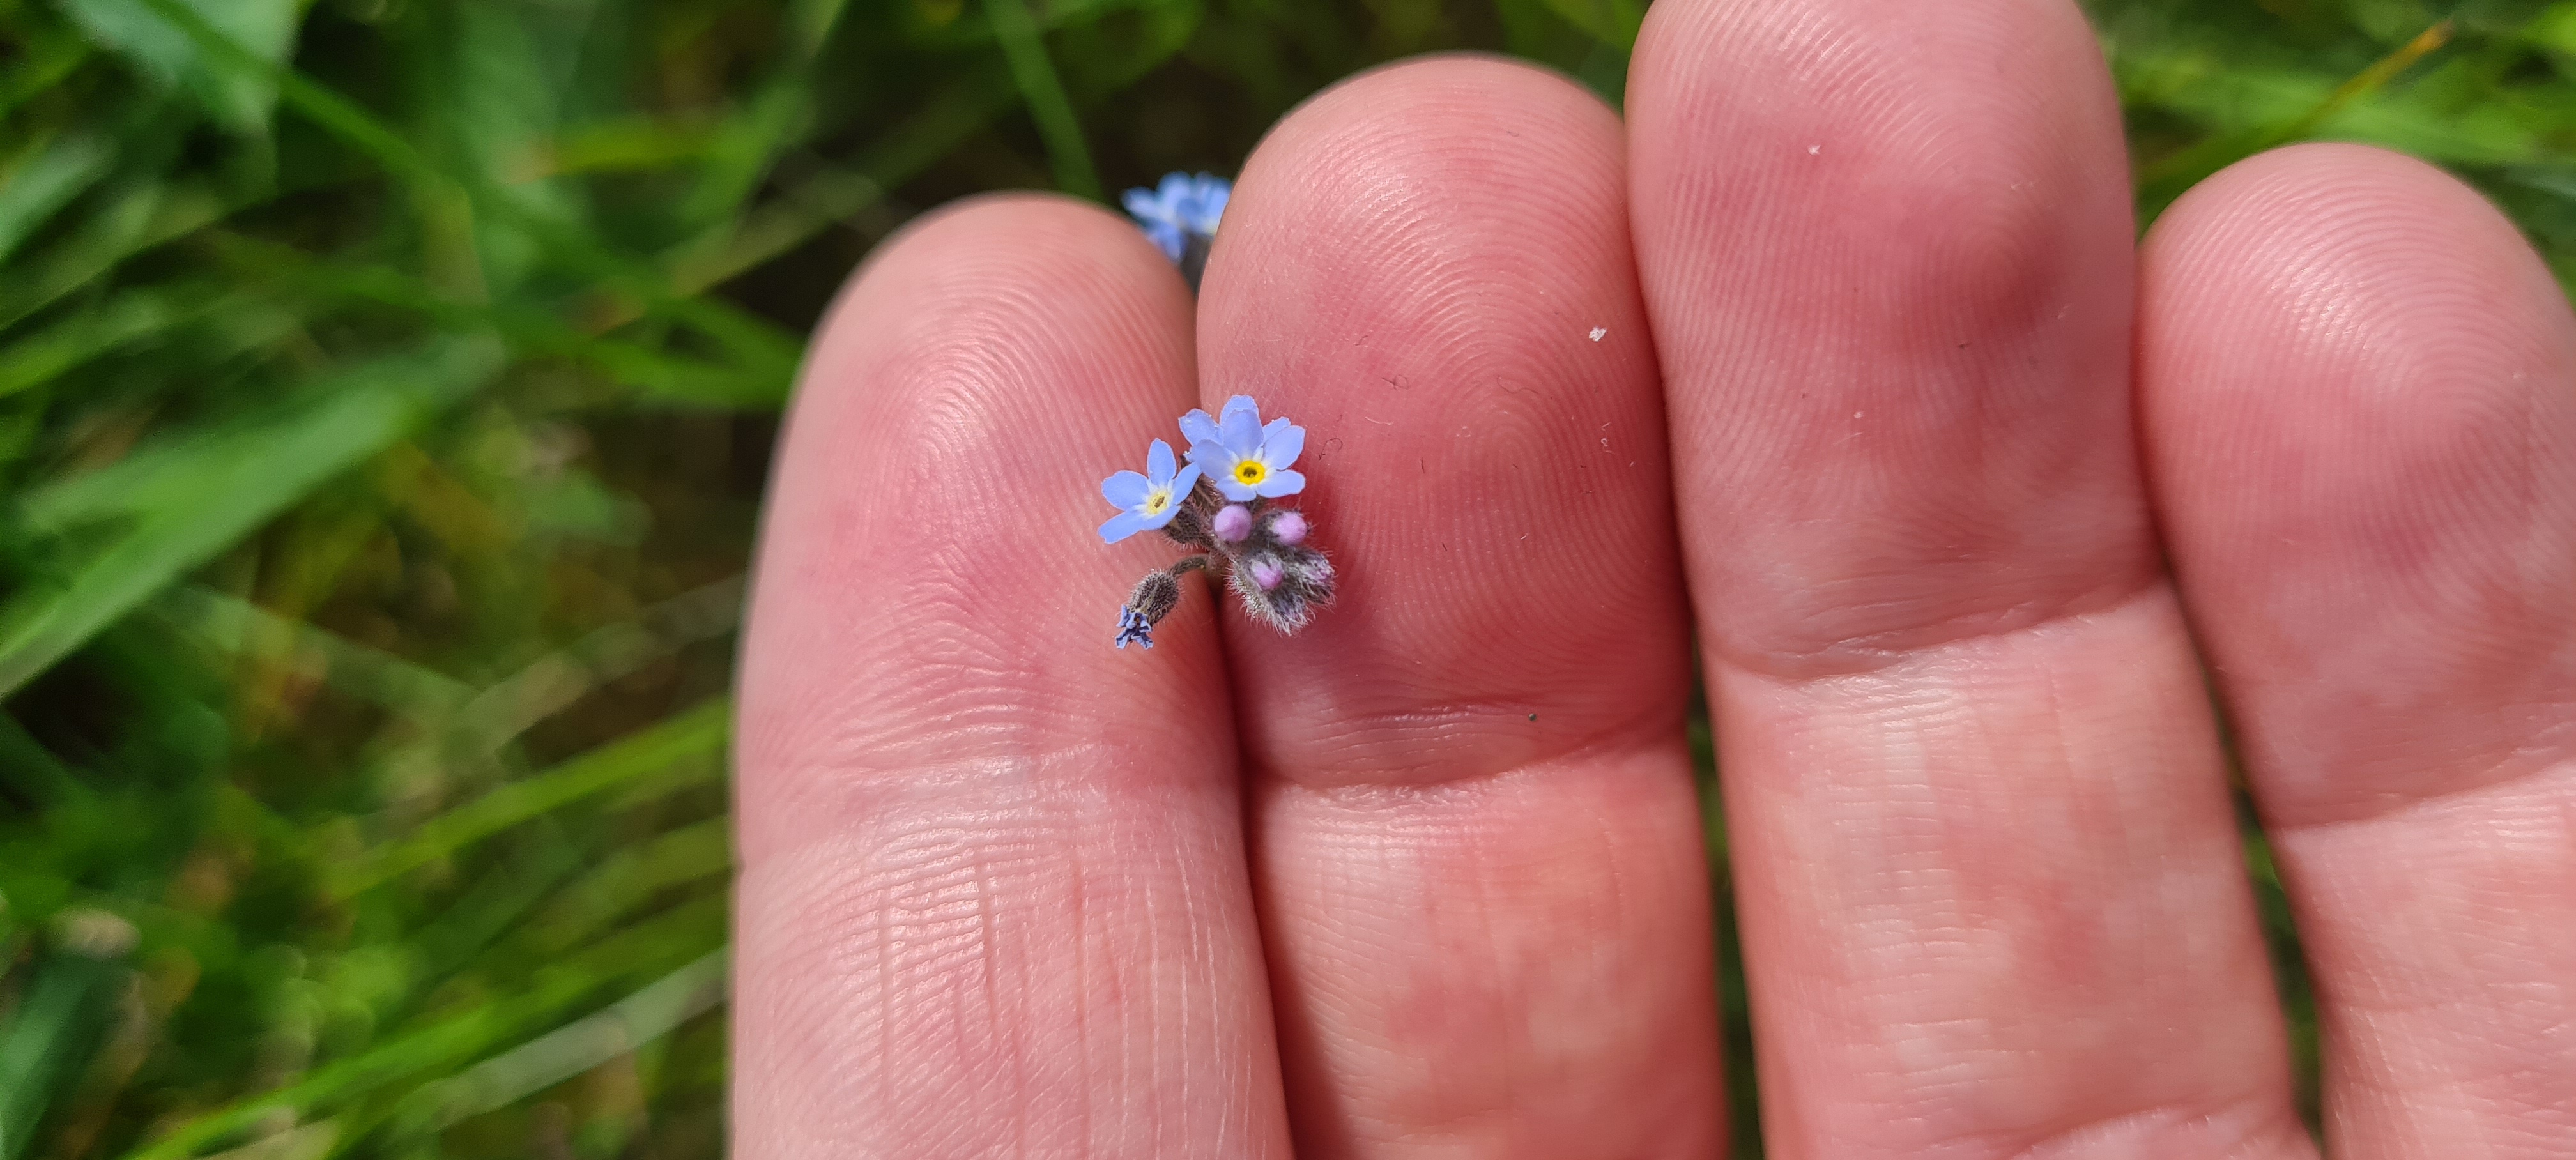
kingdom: Plantae
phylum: Tracheophyta
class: Magnoliopsida
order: Boraginales
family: Boraginaceae
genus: Myosotis
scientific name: Myosotis arvensis
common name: Mark-forglemmigej
